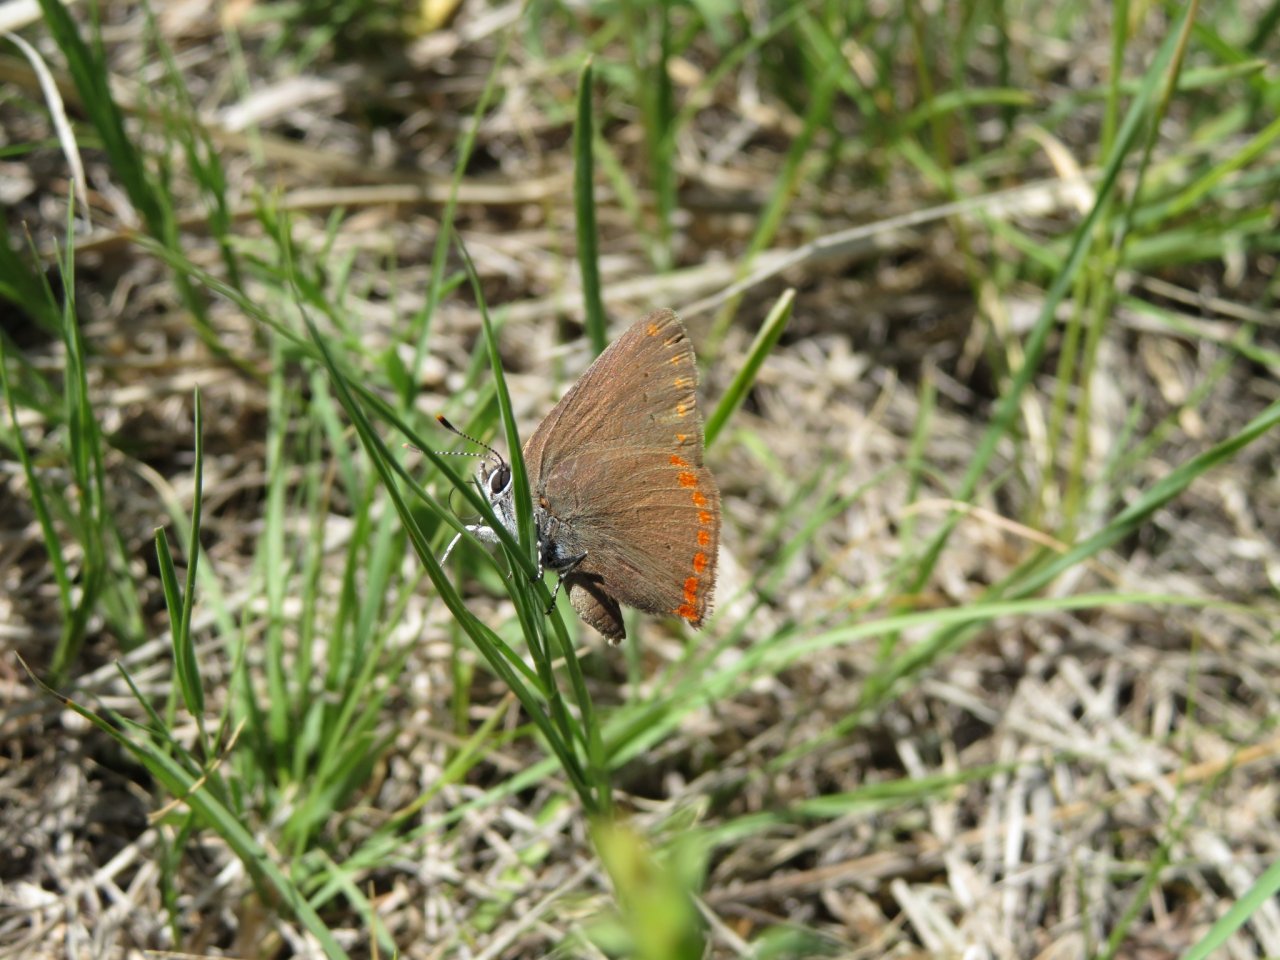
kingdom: Animalia
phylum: Arthropoda
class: Insecta
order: Lepidoptera
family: Lycaenidae
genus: Harkenclenus
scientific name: Harkenclenus titus
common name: Coral Hairstreak
